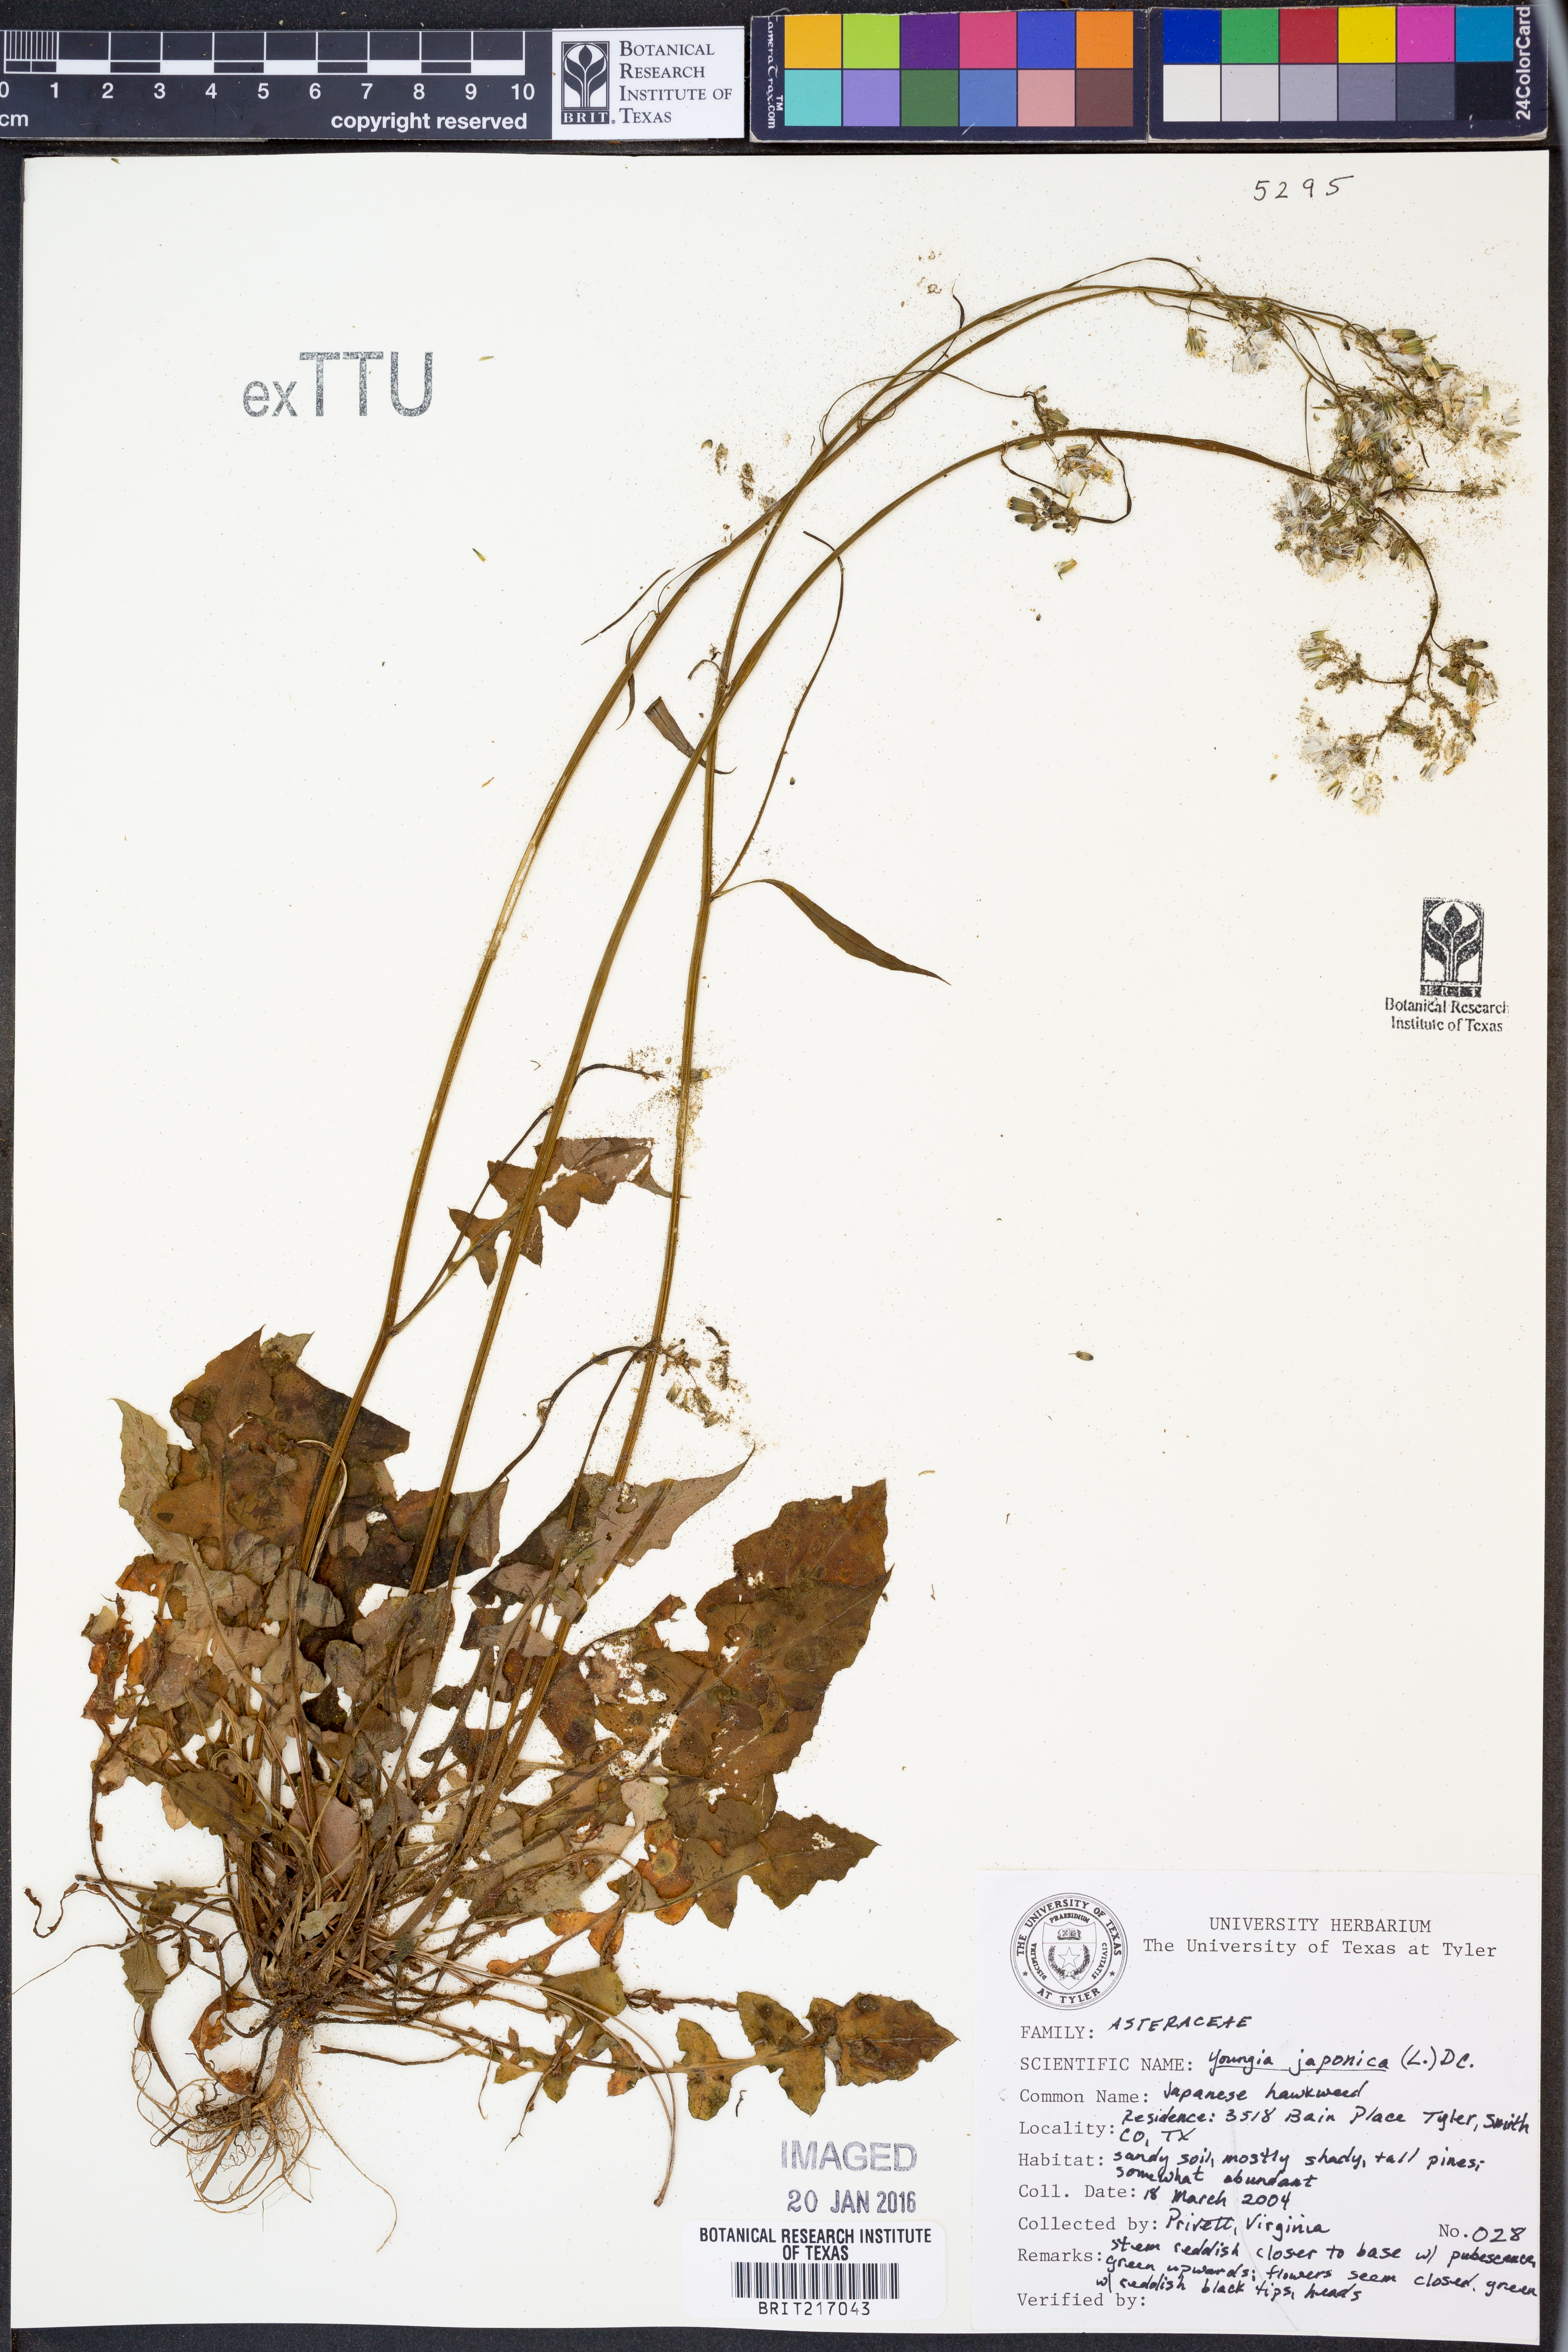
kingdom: Plantae
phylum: Tracheophyta
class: Magnoliopsida
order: Asterales
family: Asteraceae
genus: Youngia
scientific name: Youngia japonica
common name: Oriental false hawksbeard
